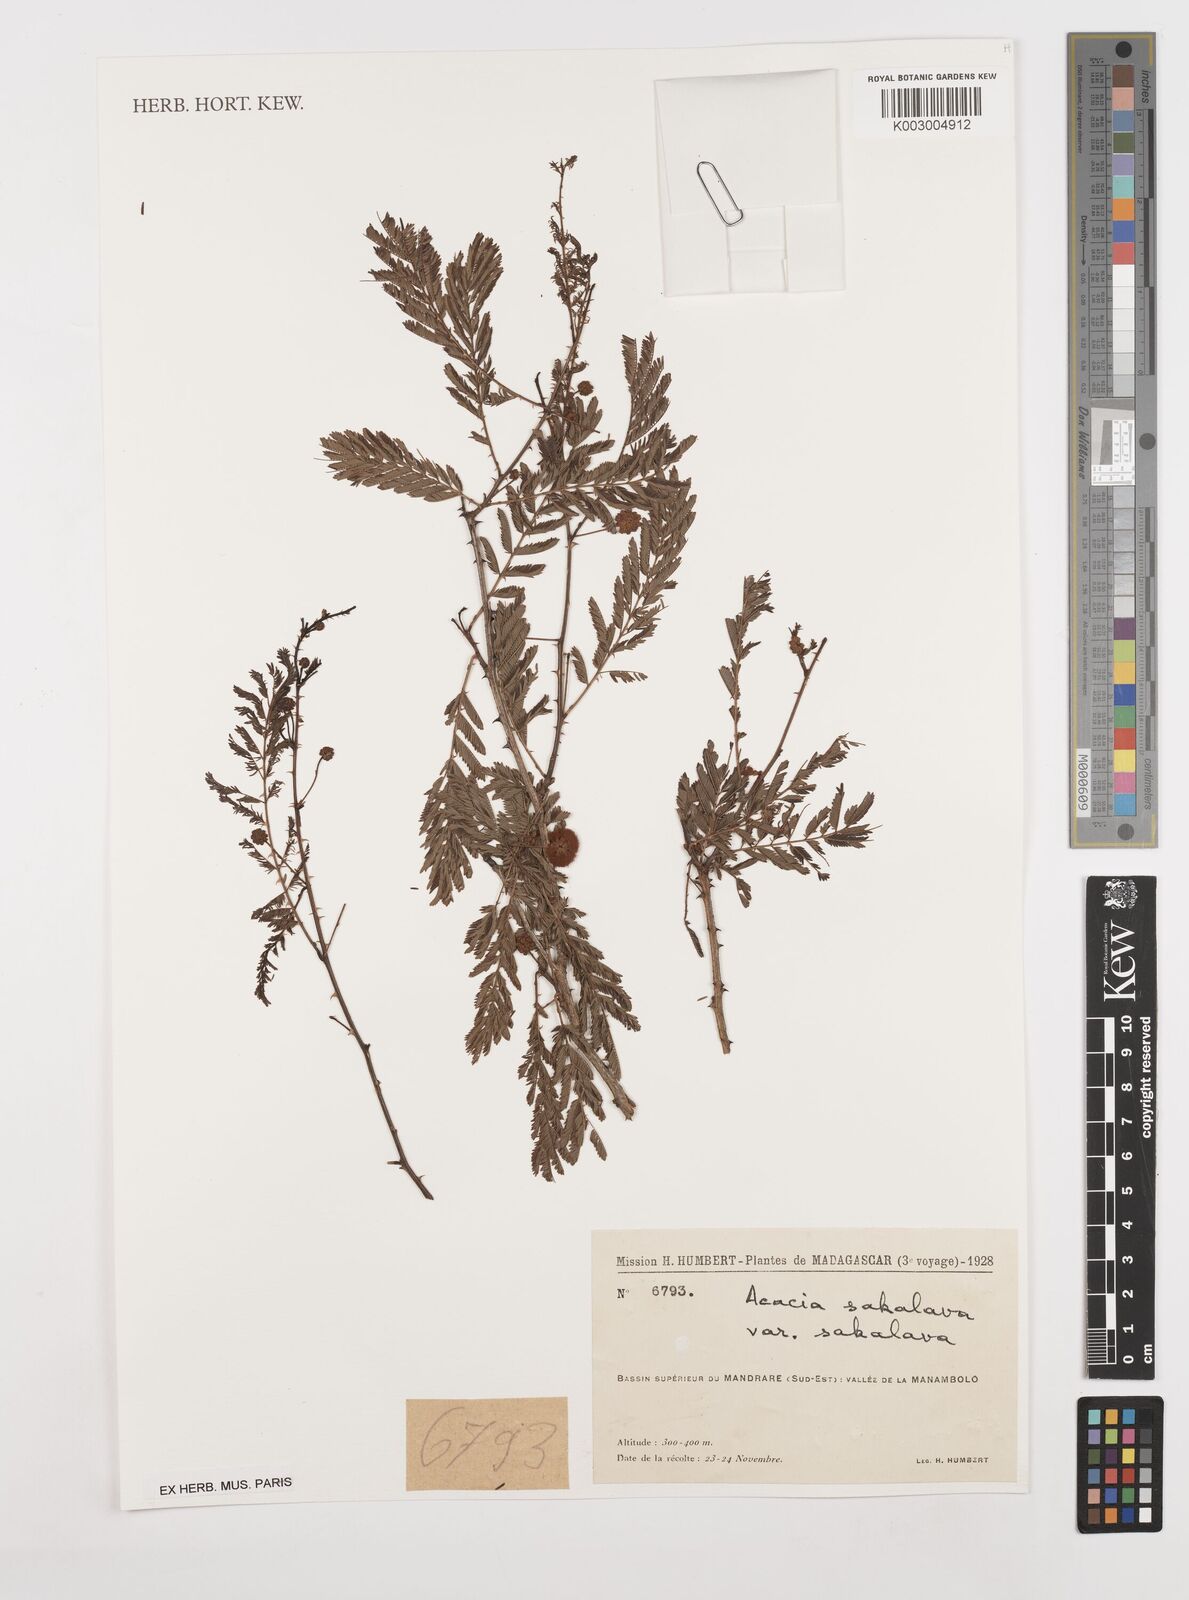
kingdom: Plantae
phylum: Tracheophyta
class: Magnoliopsida
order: Fabales
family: Fabaceae
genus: Senegalia
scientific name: Senegalia sakalava
